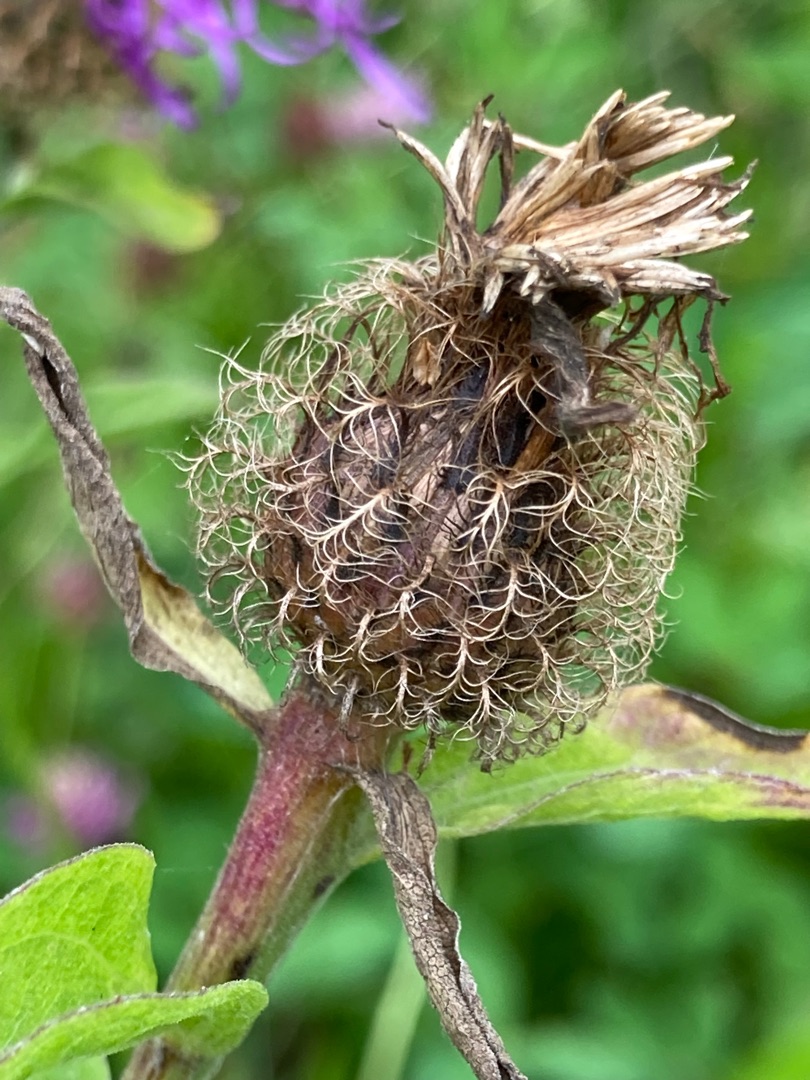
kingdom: Plantae
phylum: Tracheophyta
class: Magnoliopsida
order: Asterales
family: Asteraceae
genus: Centaurea
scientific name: Centaurea pseudophrygia
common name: Fjer-knopurt
